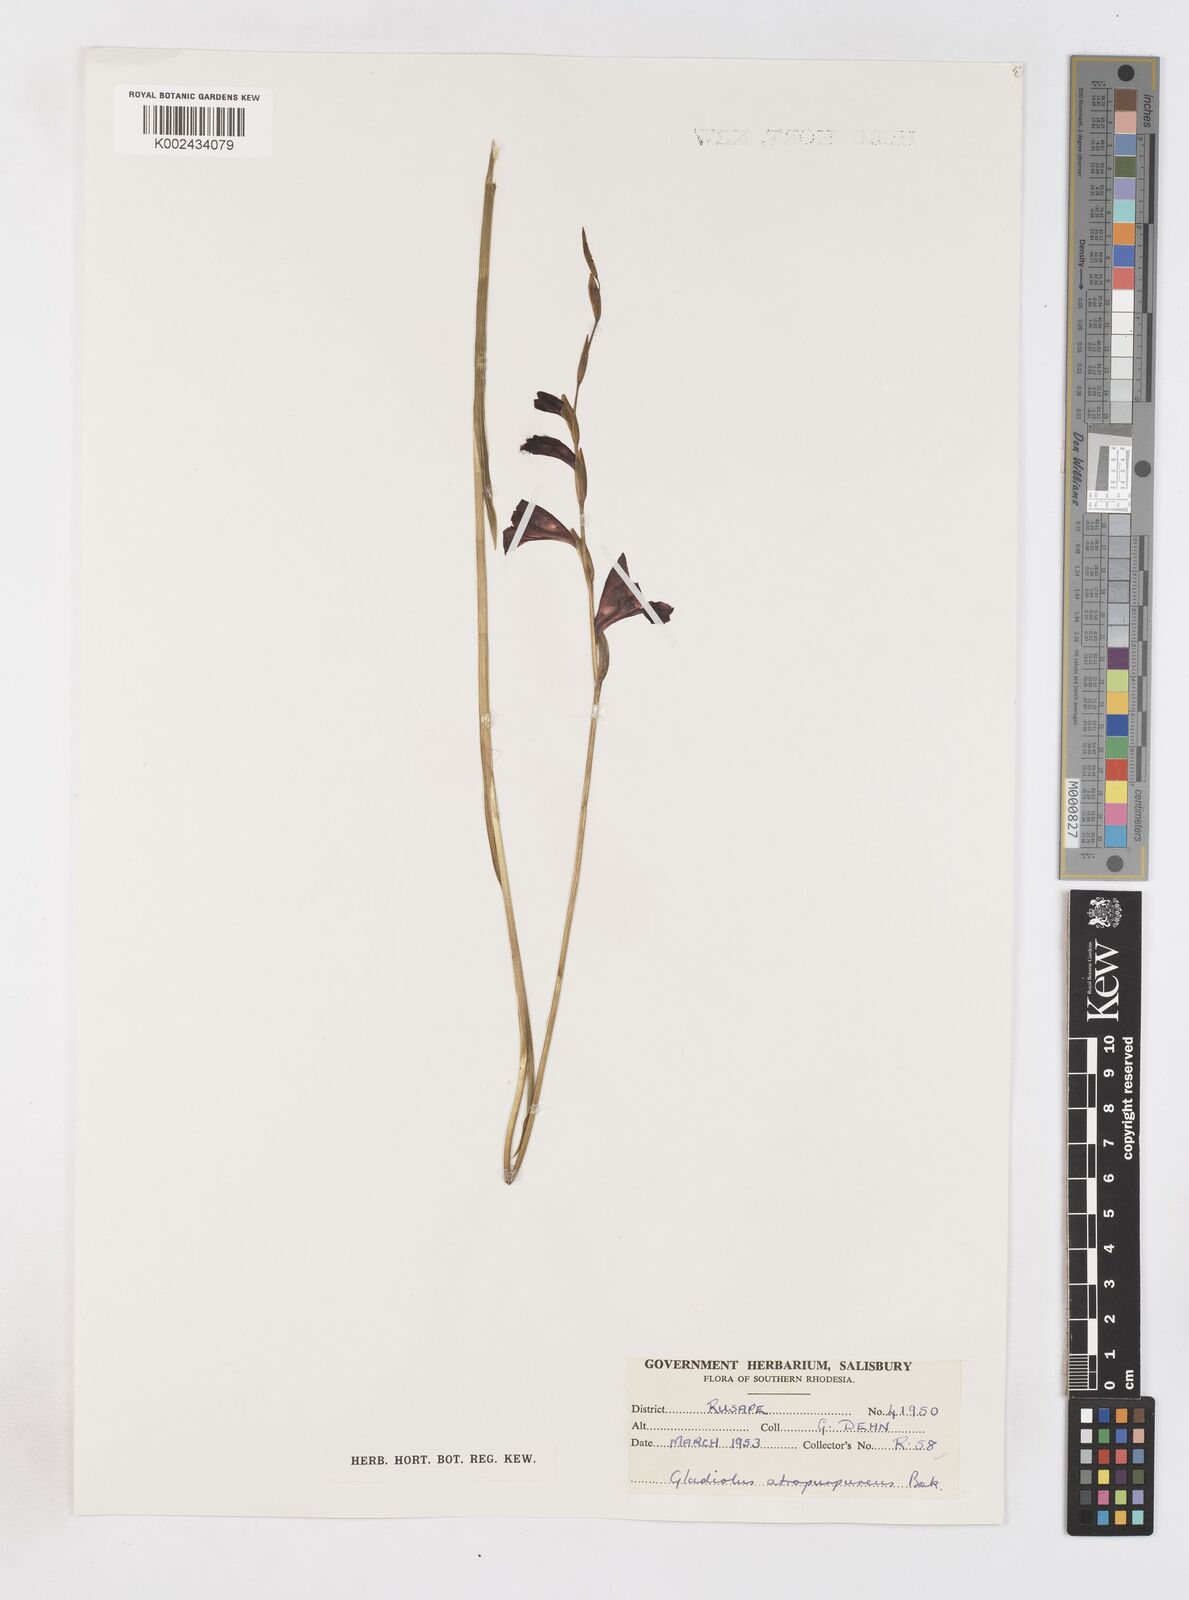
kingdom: Plantae
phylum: Tracheophyta
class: Liliopsida
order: Asparagales
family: Iridaceae
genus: Gladiolus
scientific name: Gladiolus atropurpureus
